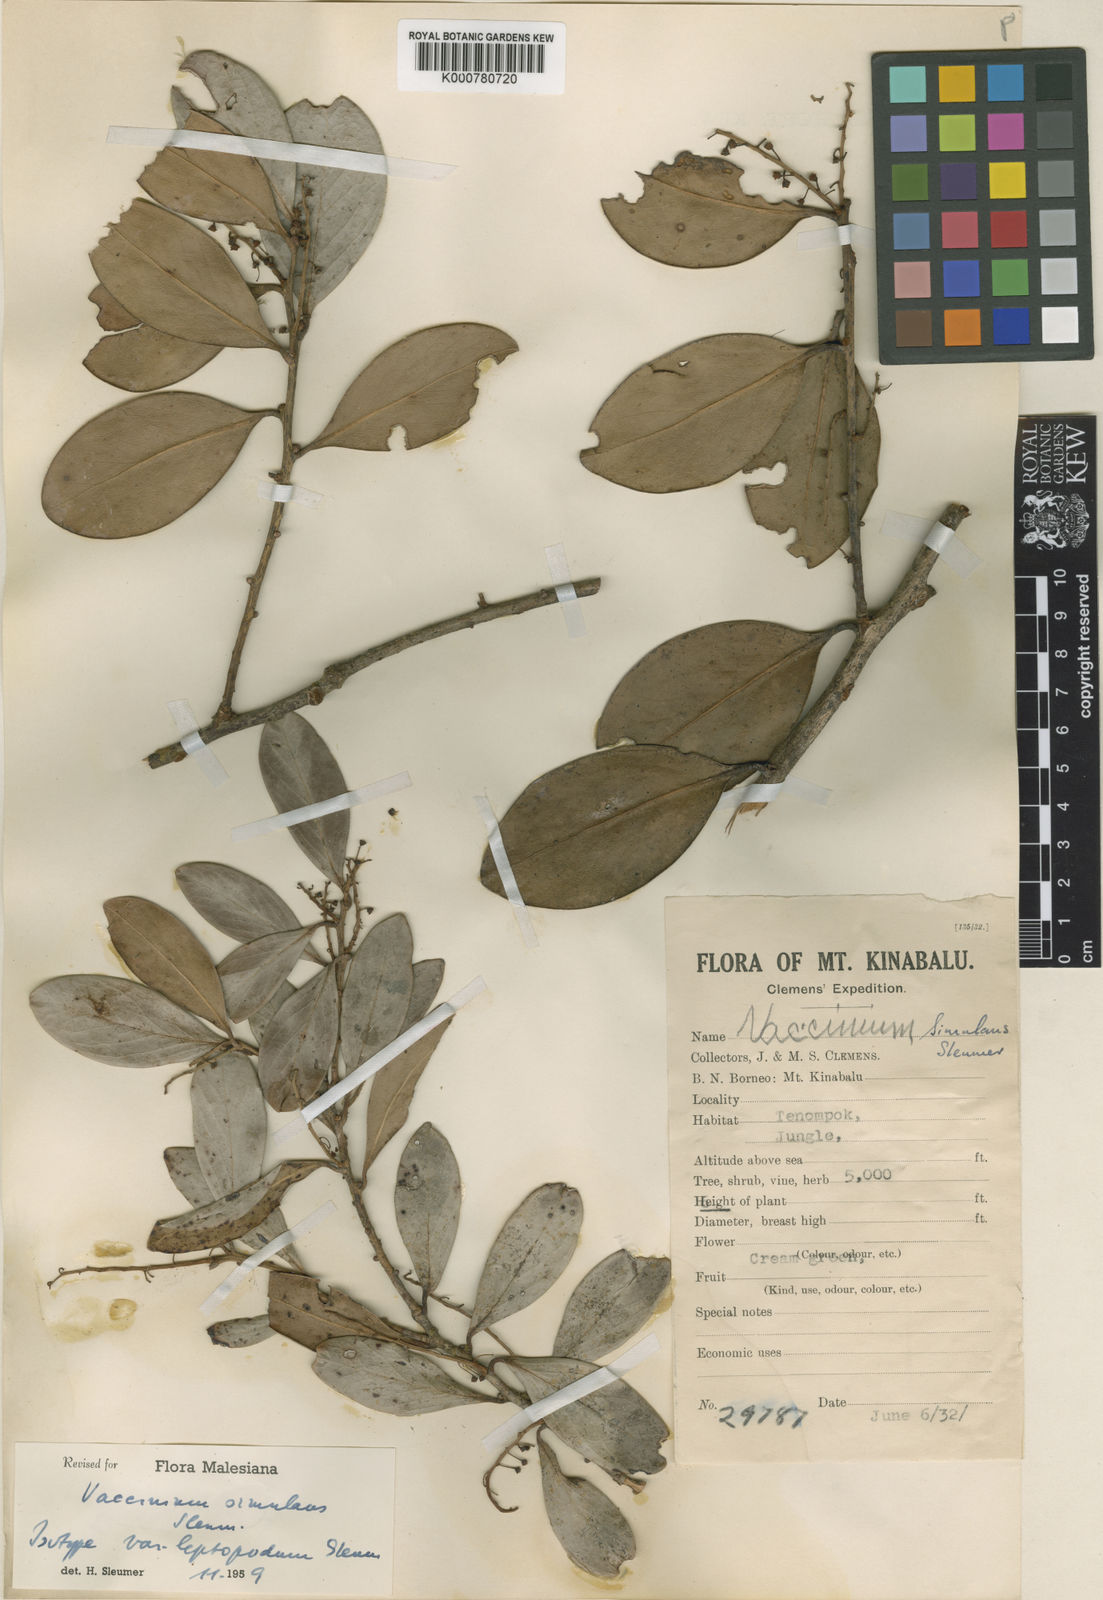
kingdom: Plantae
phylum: Tracheophyta
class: Magnoliopsida
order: Ericales
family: Ericaceae
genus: Vaccinium
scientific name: Vaccinium simulans
